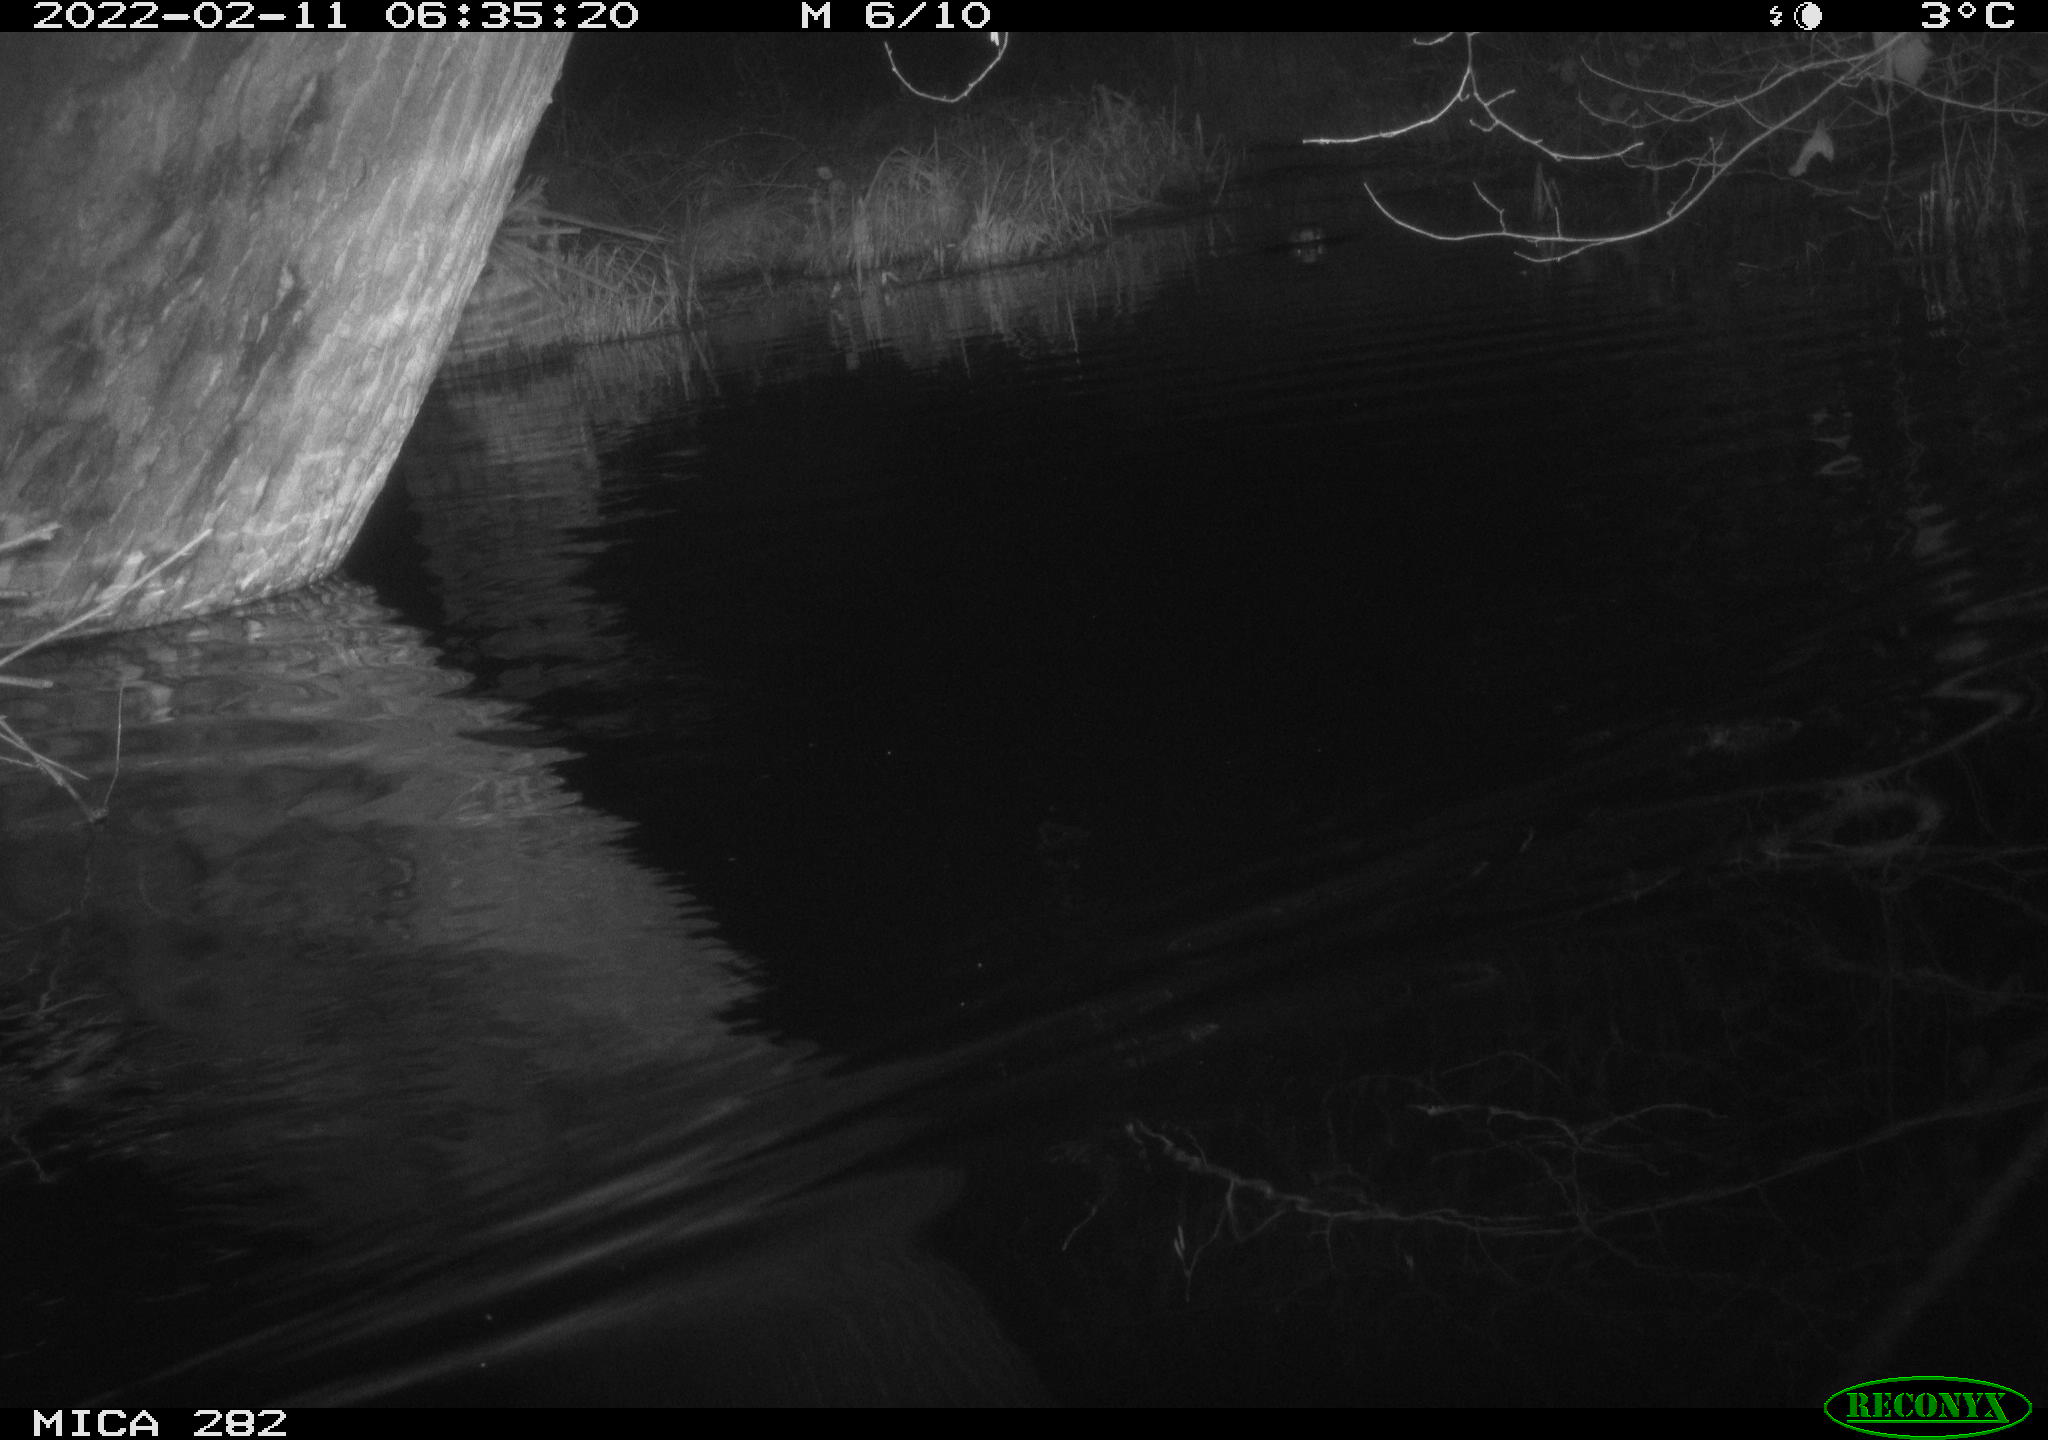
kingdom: Animalia
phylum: Chordata
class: Aves
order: Anseriformes
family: Anatidae
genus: Anas
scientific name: Anas platyrhynchos
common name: Mallard
